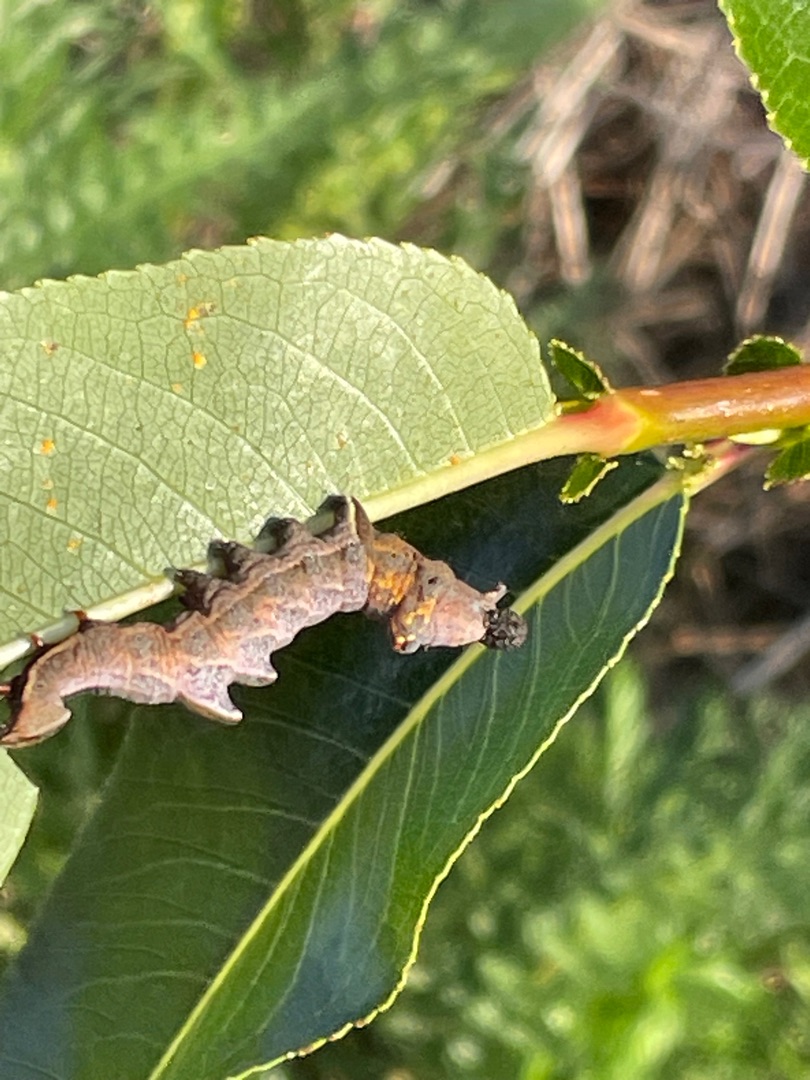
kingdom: Animalia
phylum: Arthropoda
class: Insecta
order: Lepidoptera
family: Notodontidae
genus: Notodonta
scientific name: Notodonta ziczac
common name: Zigzagspinder
